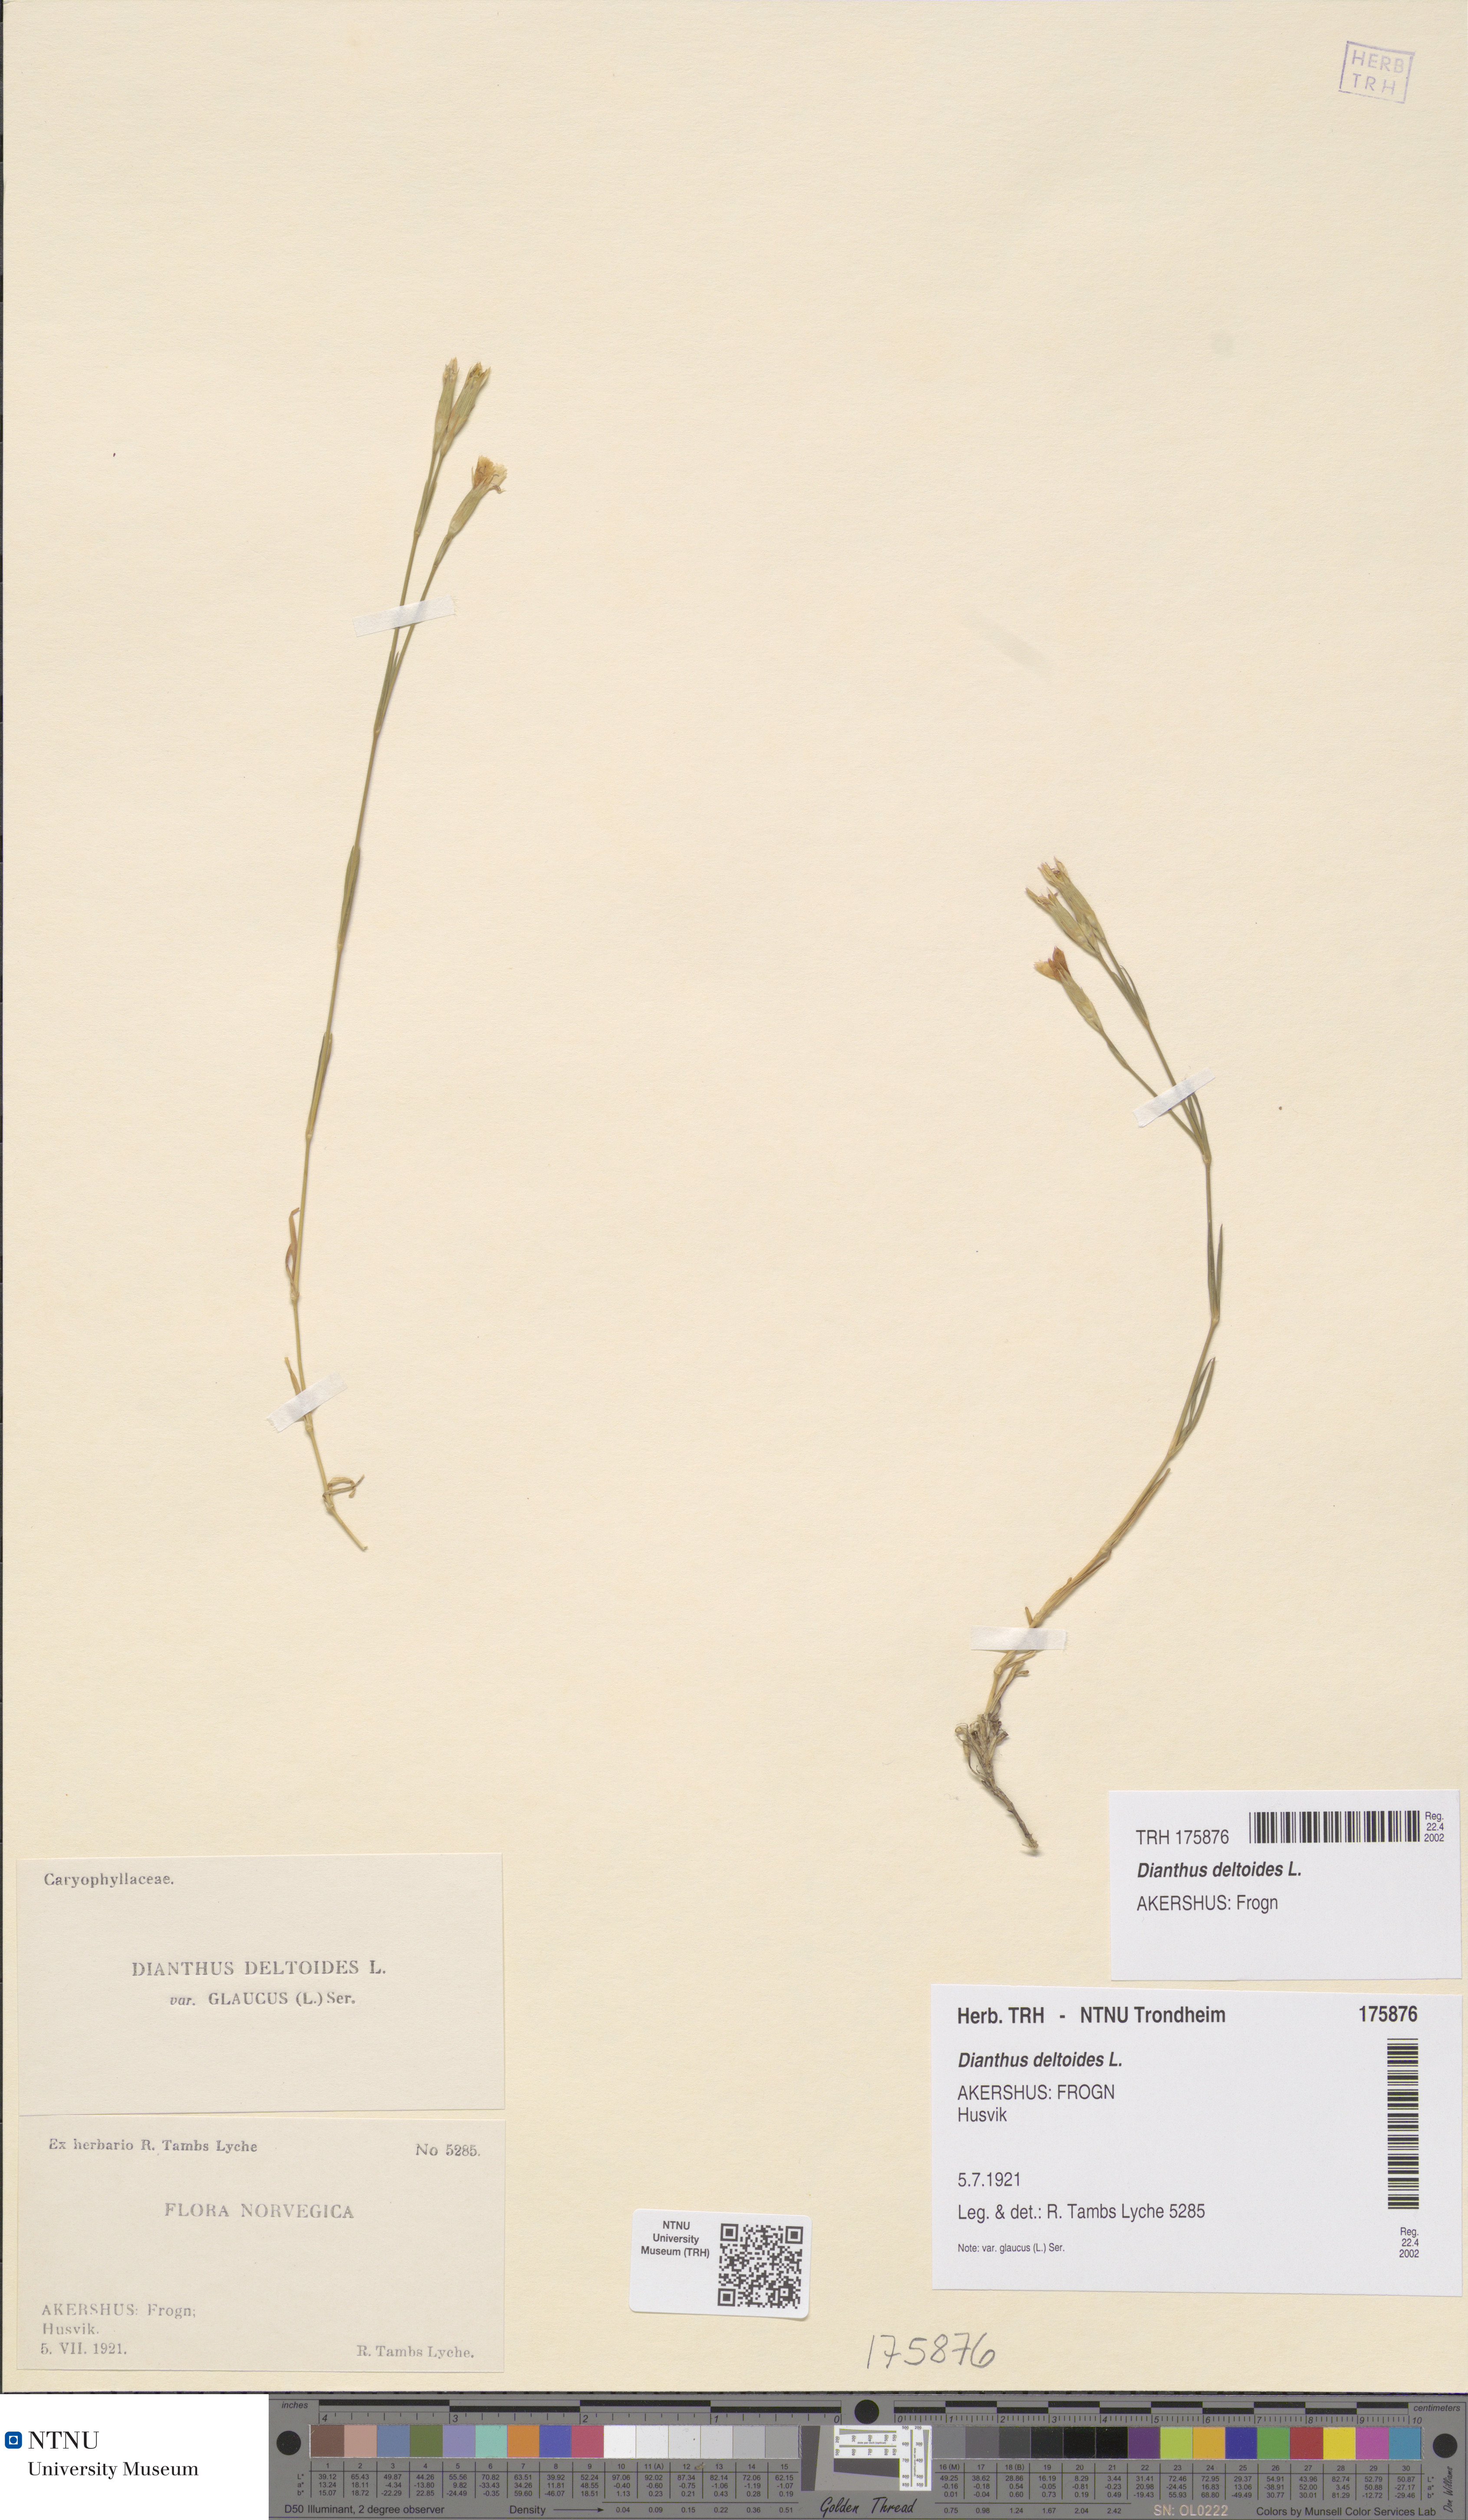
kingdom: Plantae
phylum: Tracheophyta
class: Magnoliopsida
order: Caryophyllales
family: Caryophyllaceae
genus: Dianthus
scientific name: Dianthus deltoides
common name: Maiden pink
